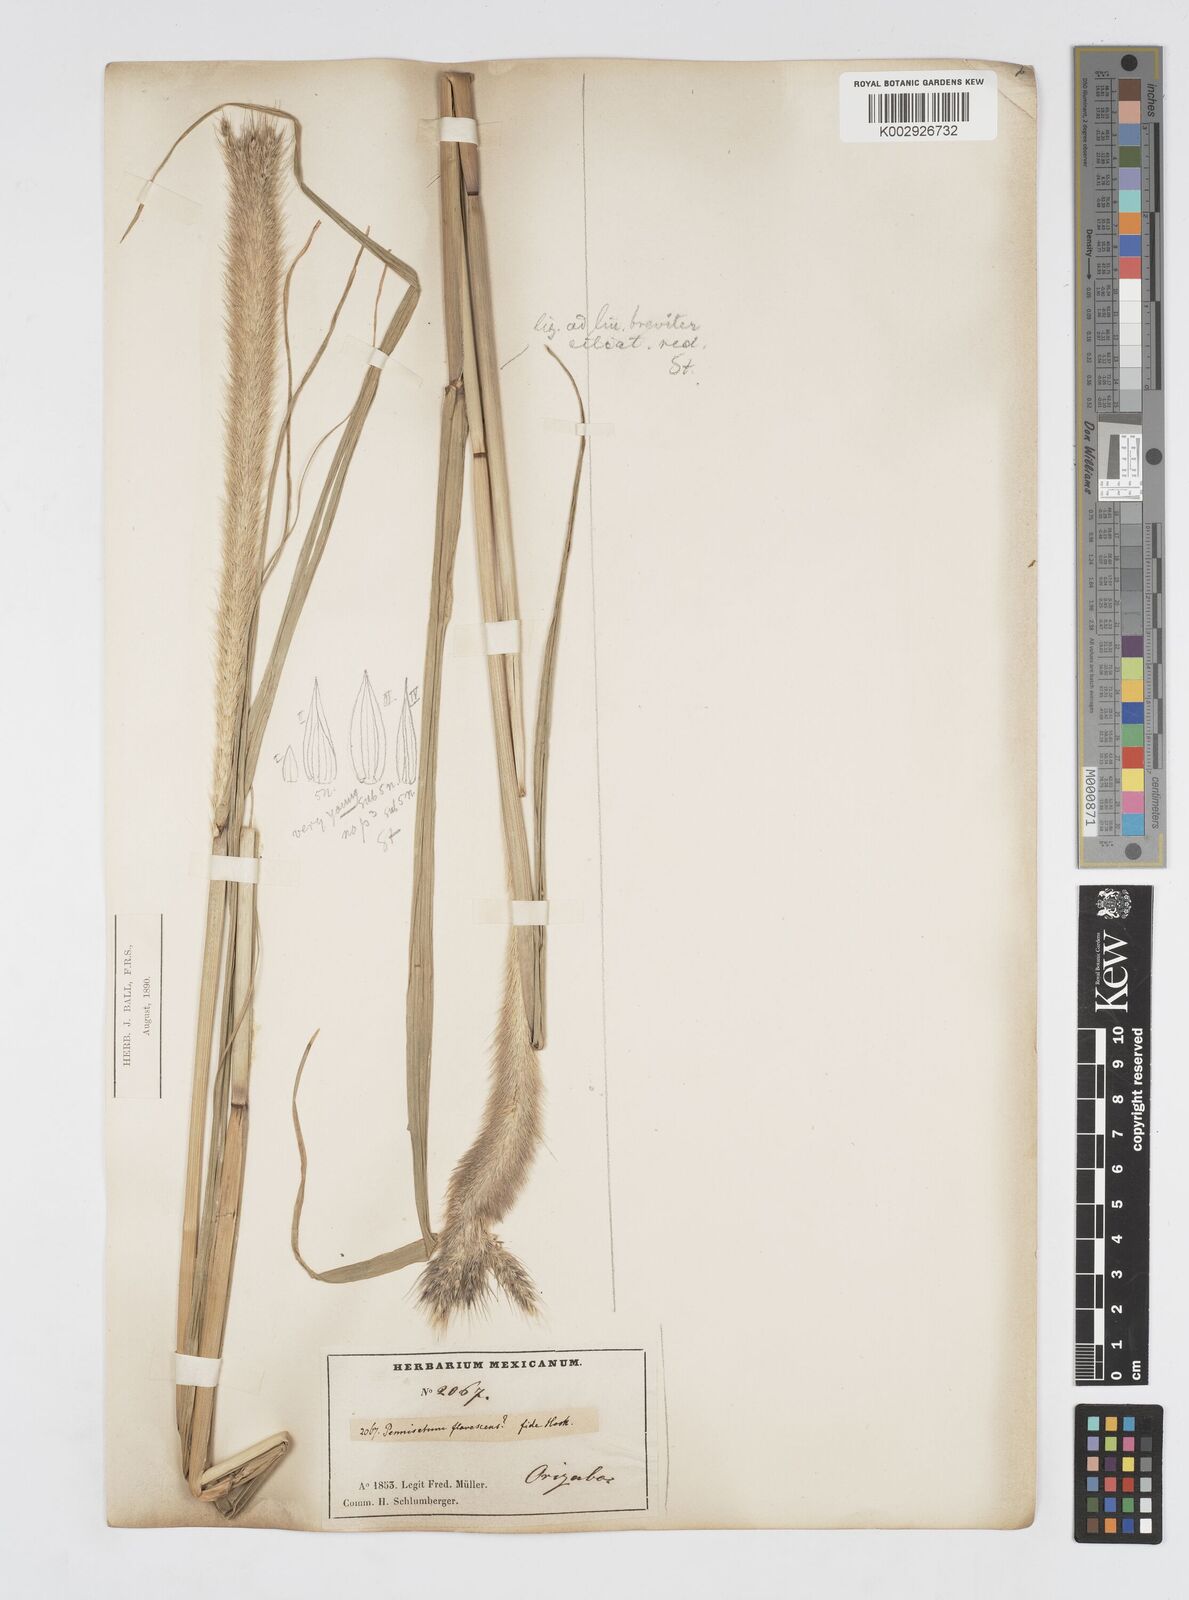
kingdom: Plantae
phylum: Tracheophyta
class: Liliopsida
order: Poales
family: Poaceae
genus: Cenchrus
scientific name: Cenchrus complanatus
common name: Nicaraguan fountaingrass
